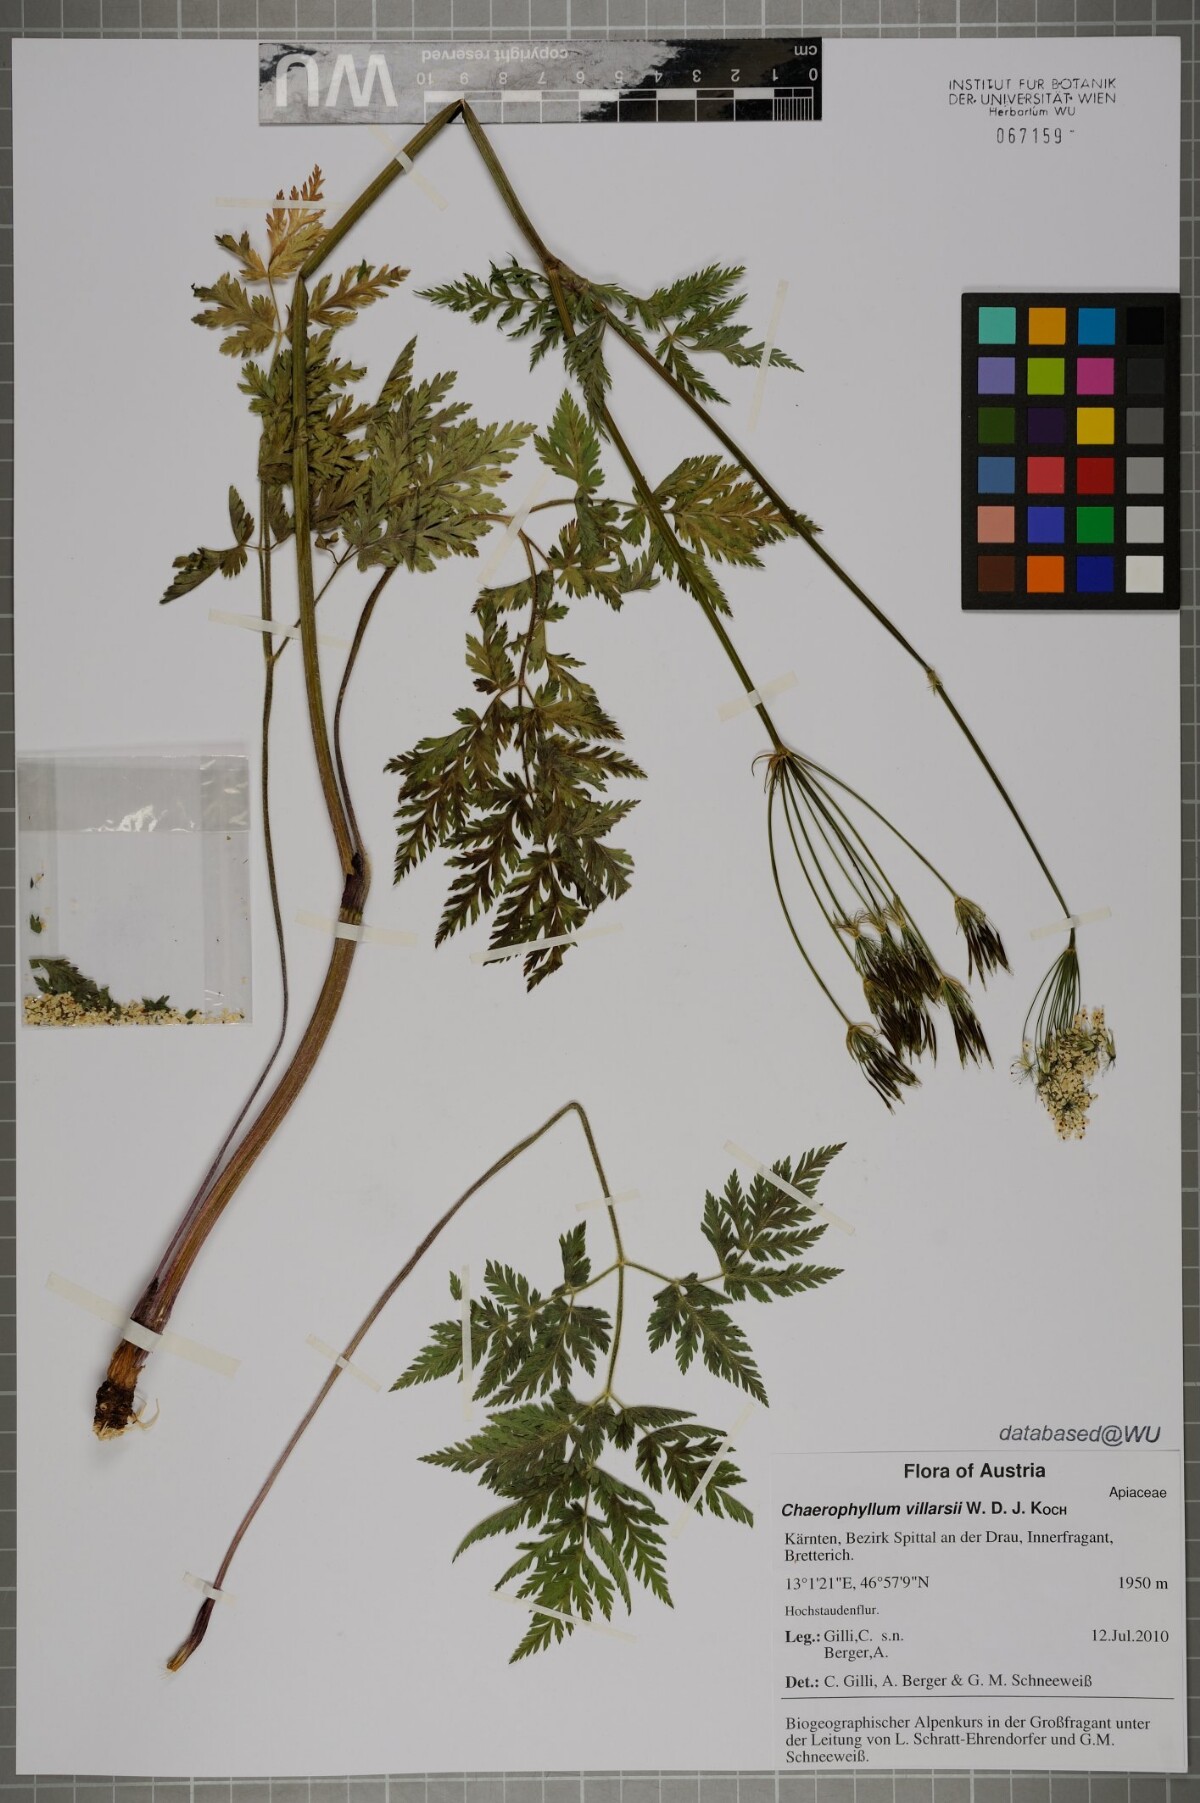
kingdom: Plantae
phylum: Tracheophyta
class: Magnoliopsida
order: Apiales
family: Apiaceae
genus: Chaerophyllum
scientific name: Chaerophyllum villarsii
